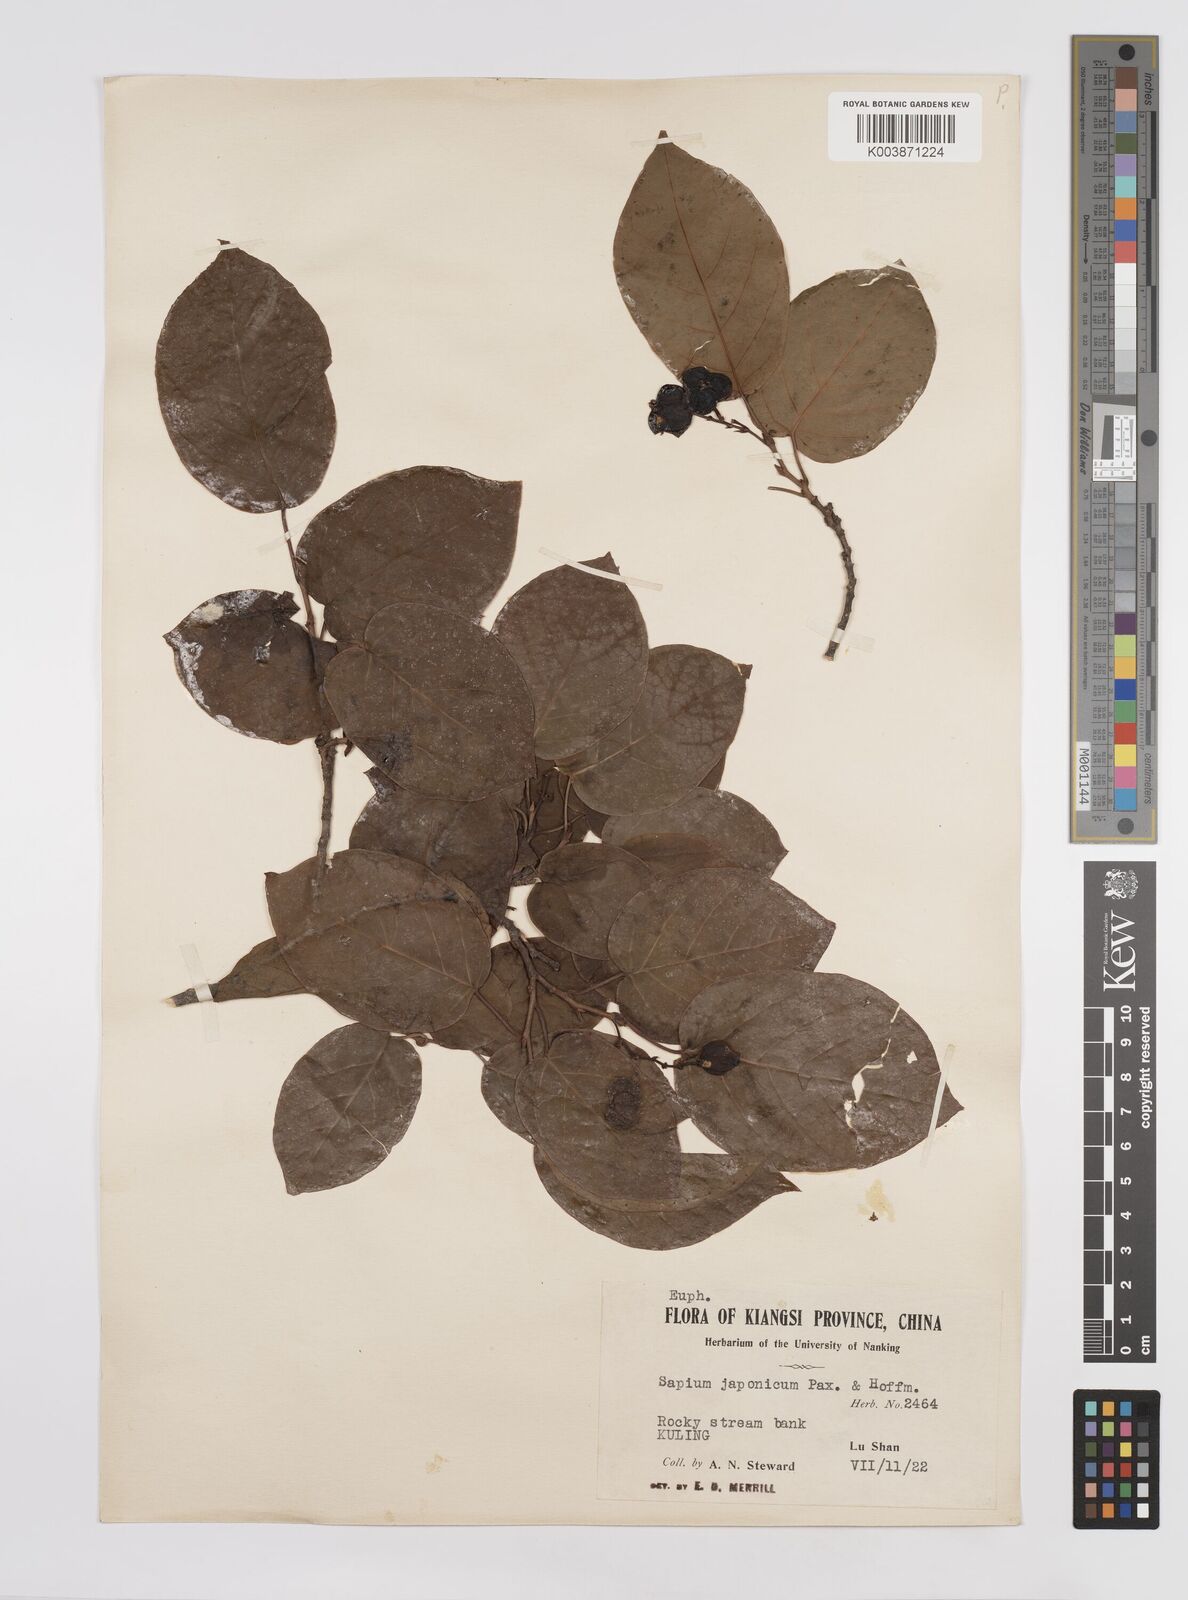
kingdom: Plantae
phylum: Tracheophyta
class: Magnoliopsida
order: Malpighiales
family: Euphorbiaceae
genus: Neoshirakia
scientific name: Neoshirakia japonica
